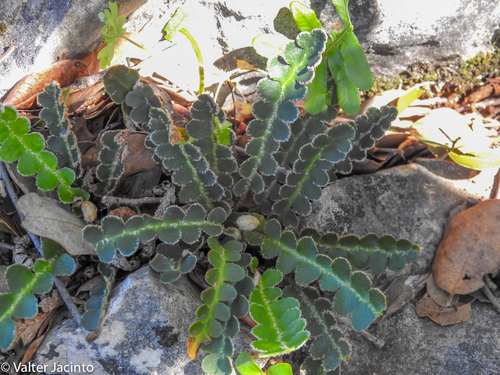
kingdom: Plantae
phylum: Tracheophyta
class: Polypodiopsida
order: Polypodiales
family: Aspleniaceae
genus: Asplenium
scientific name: Asplenium ceterach
